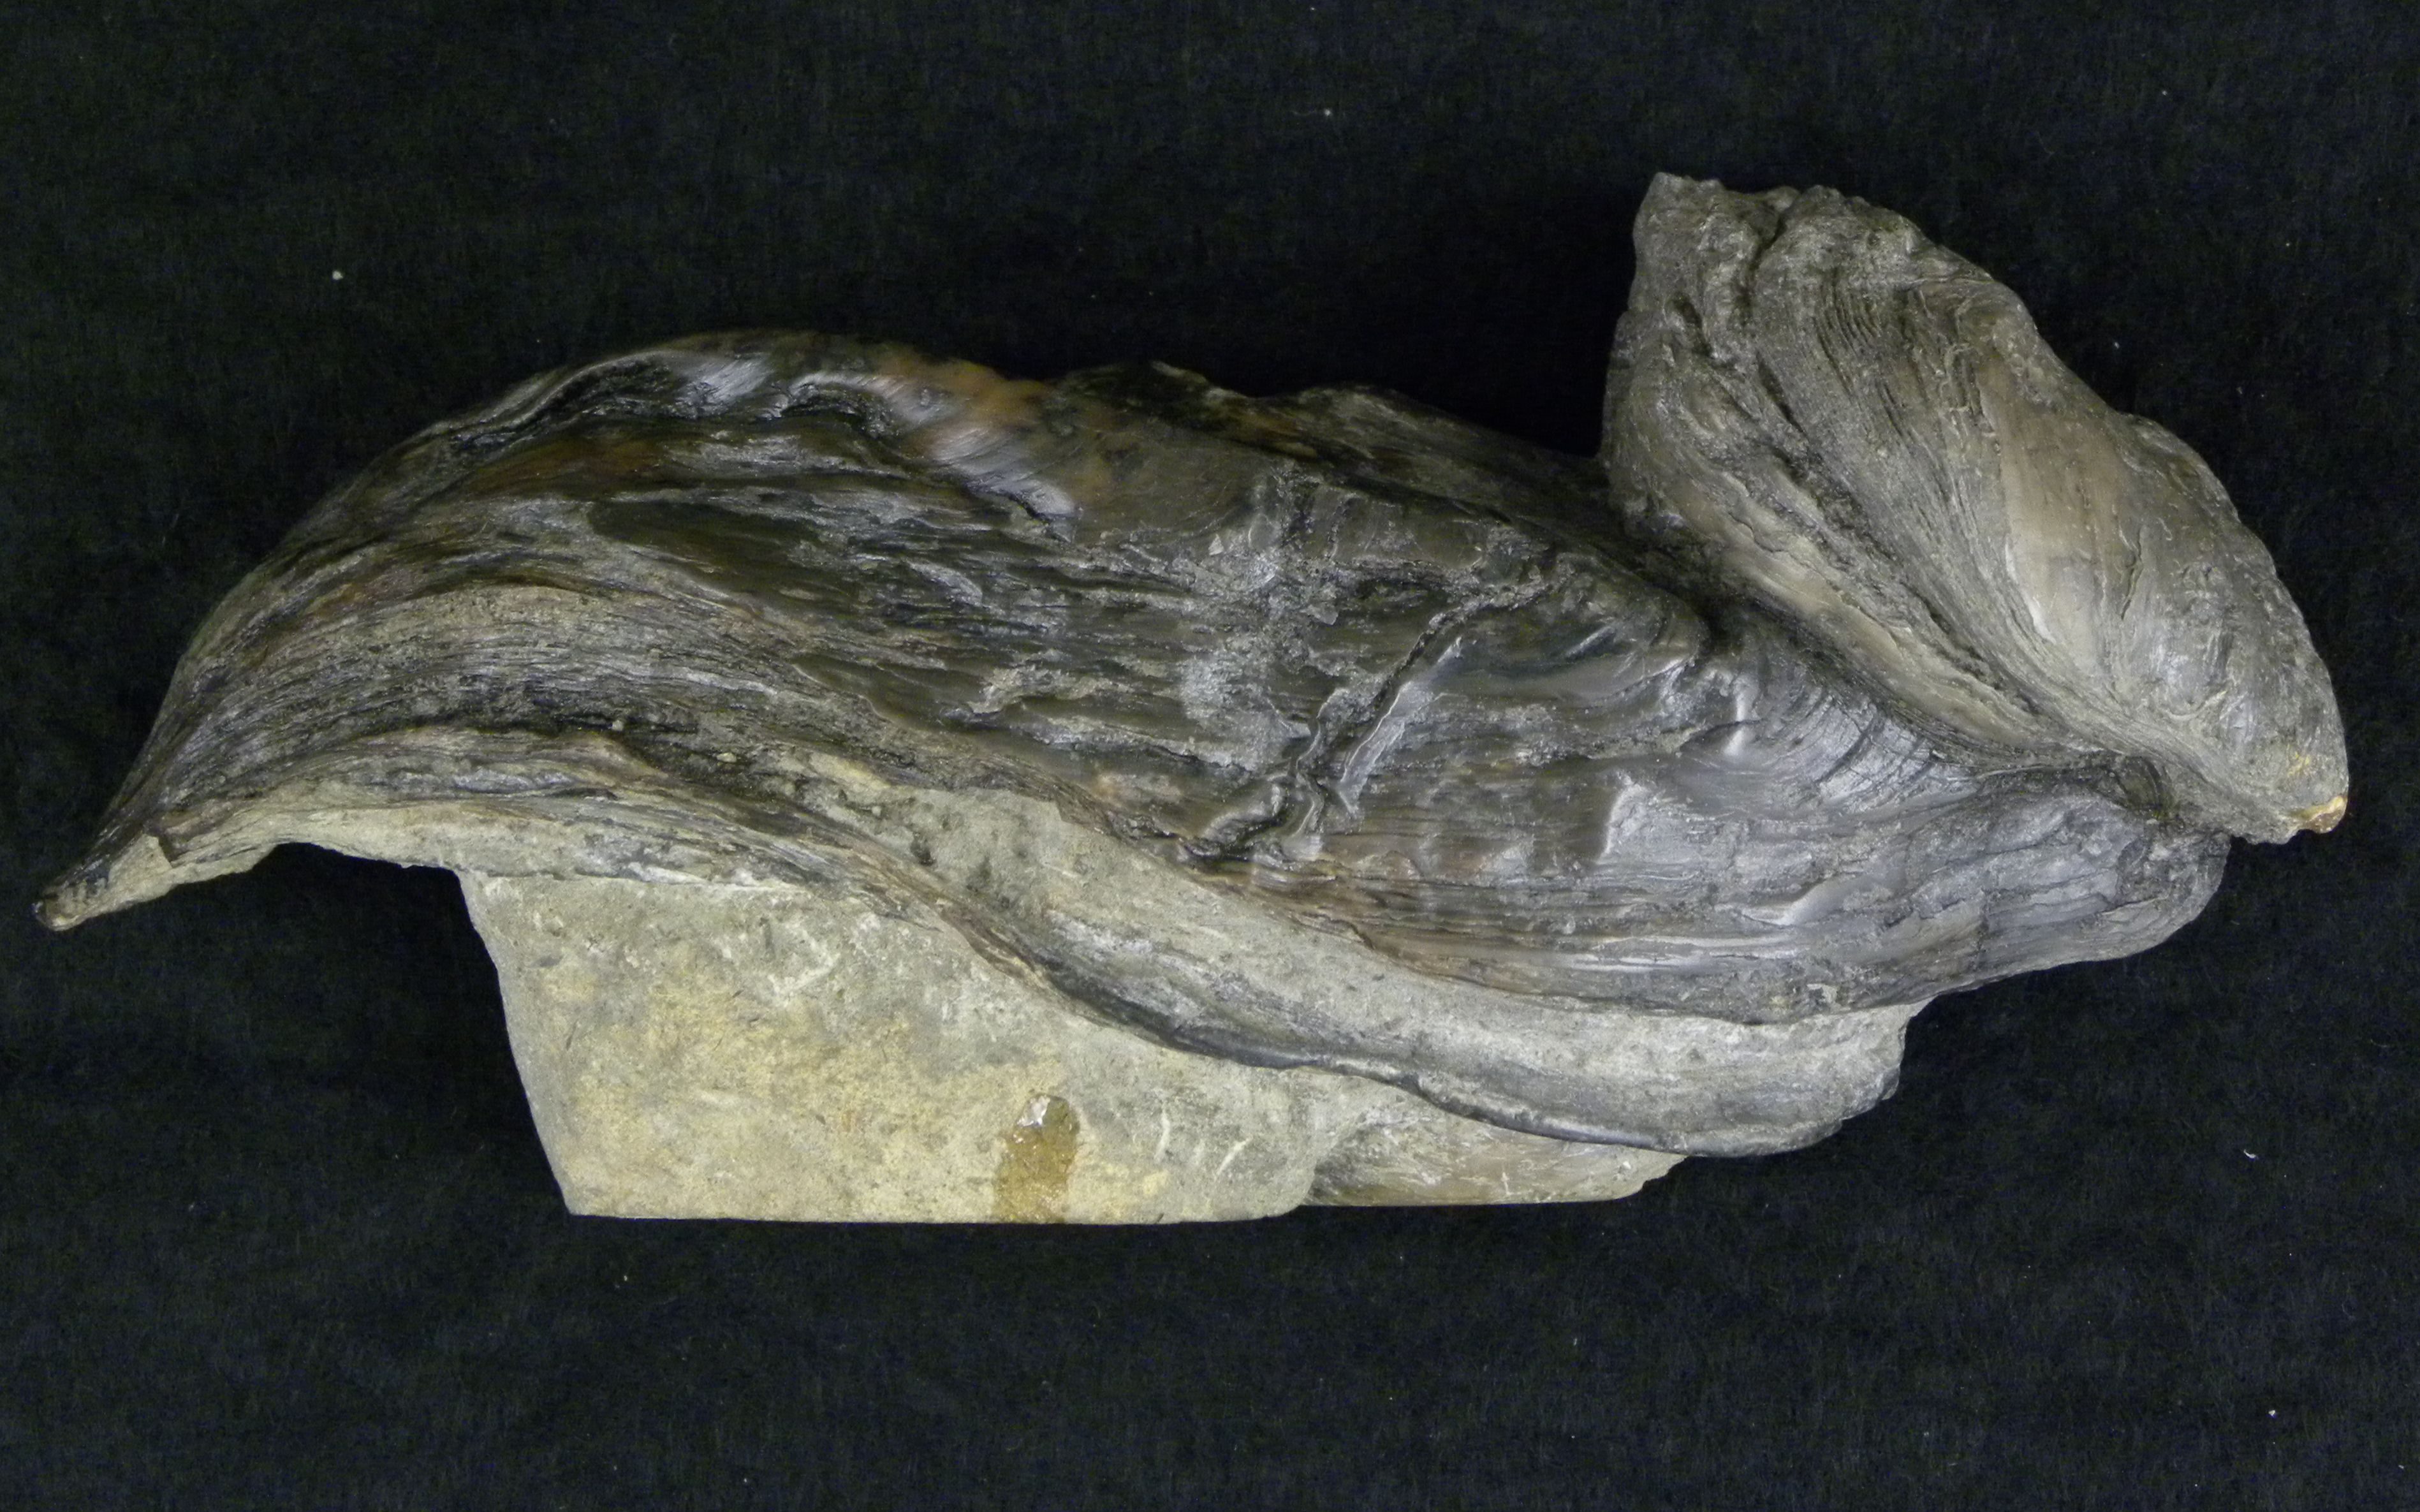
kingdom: Animalia
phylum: Mollusca
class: Bivalvia
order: Ostreida
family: Bakevelliidae
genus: Gervillia
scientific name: Gervillia
